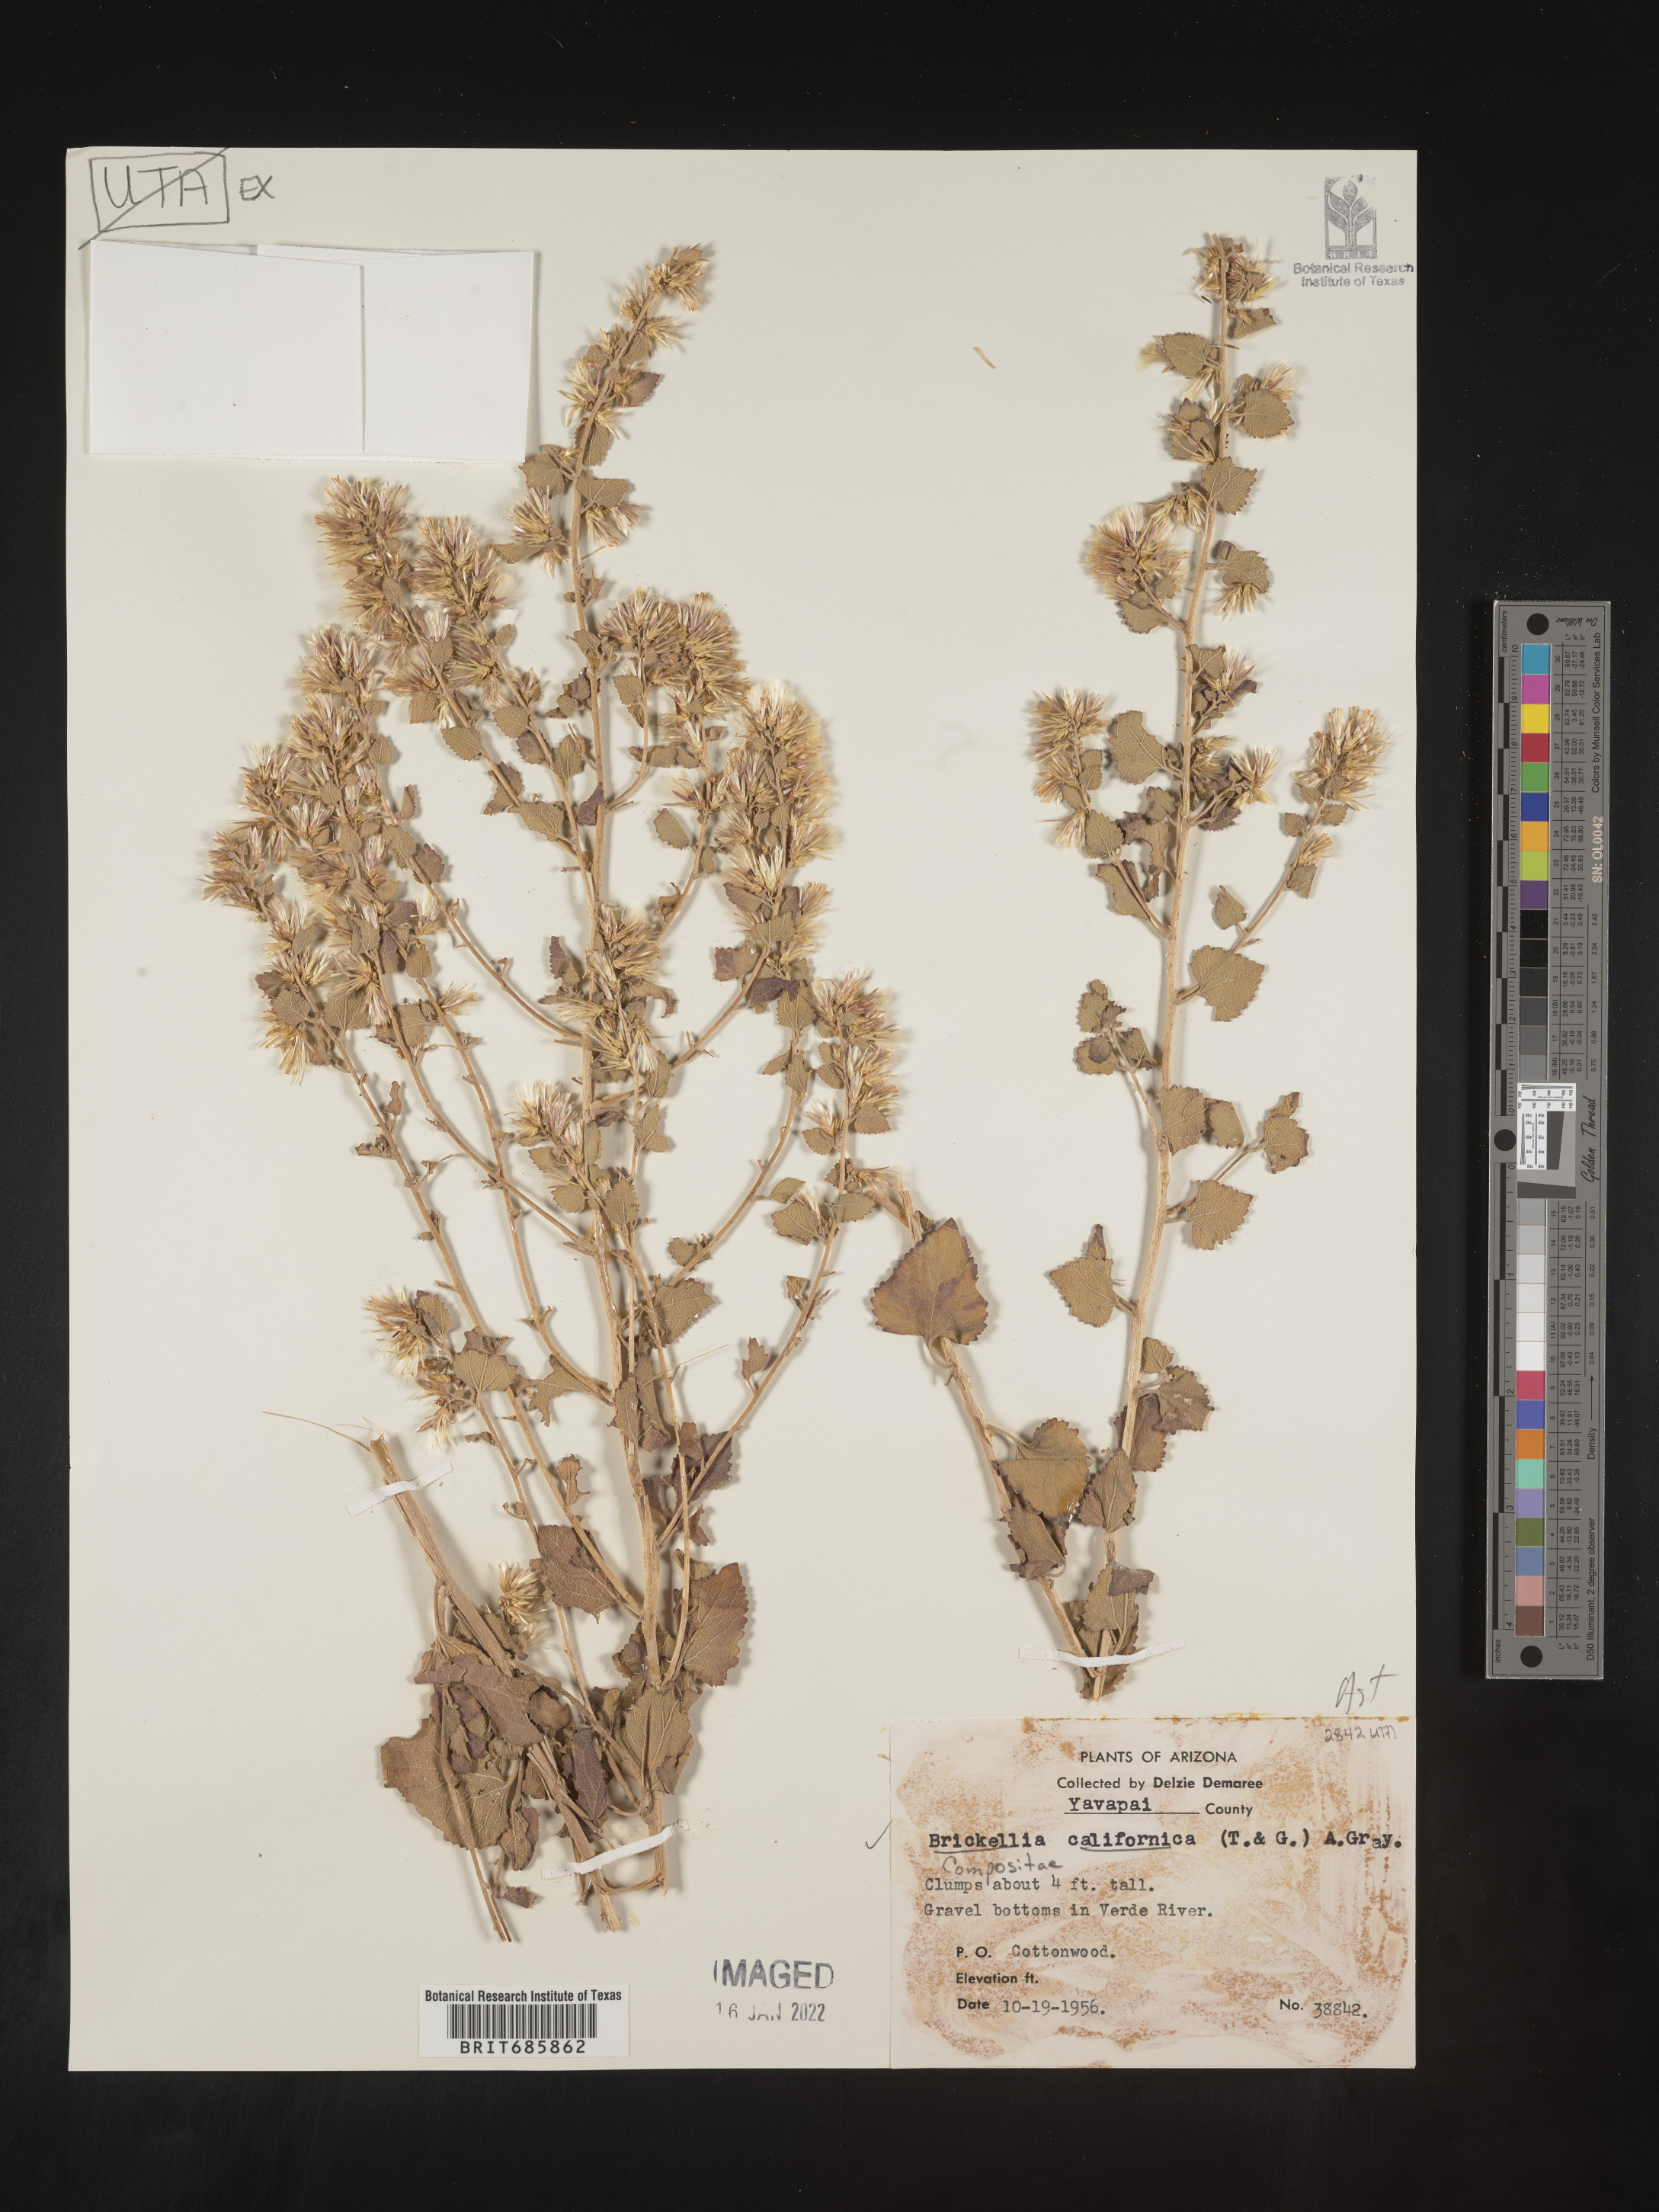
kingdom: Plantae
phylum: Tracheophyta
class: Magnoliopsida
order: Asterales
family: Asteraceae
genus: Brickellia
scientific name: Brickellia californica
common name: California brickellbush
